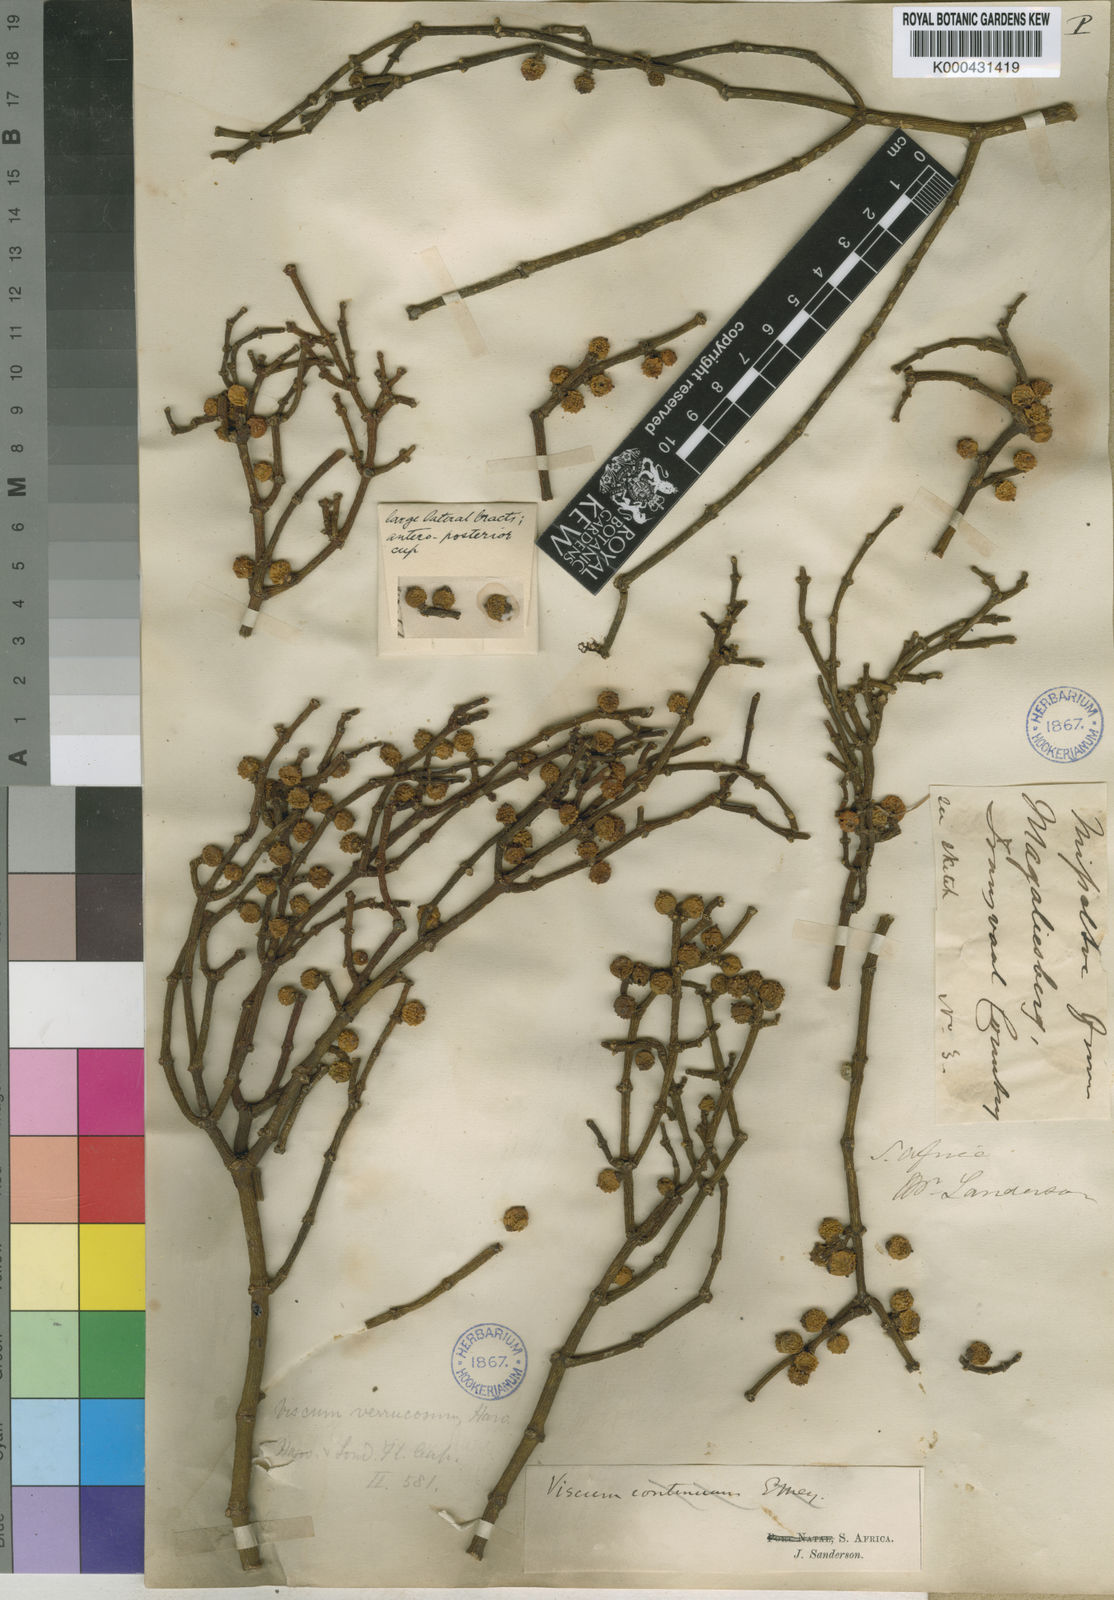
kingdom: Plantae
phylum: Tracheophyta
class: Magnoliopsida
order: Santalales
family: Viscaceae
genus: Viscum
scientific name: Viscum verrucosum
